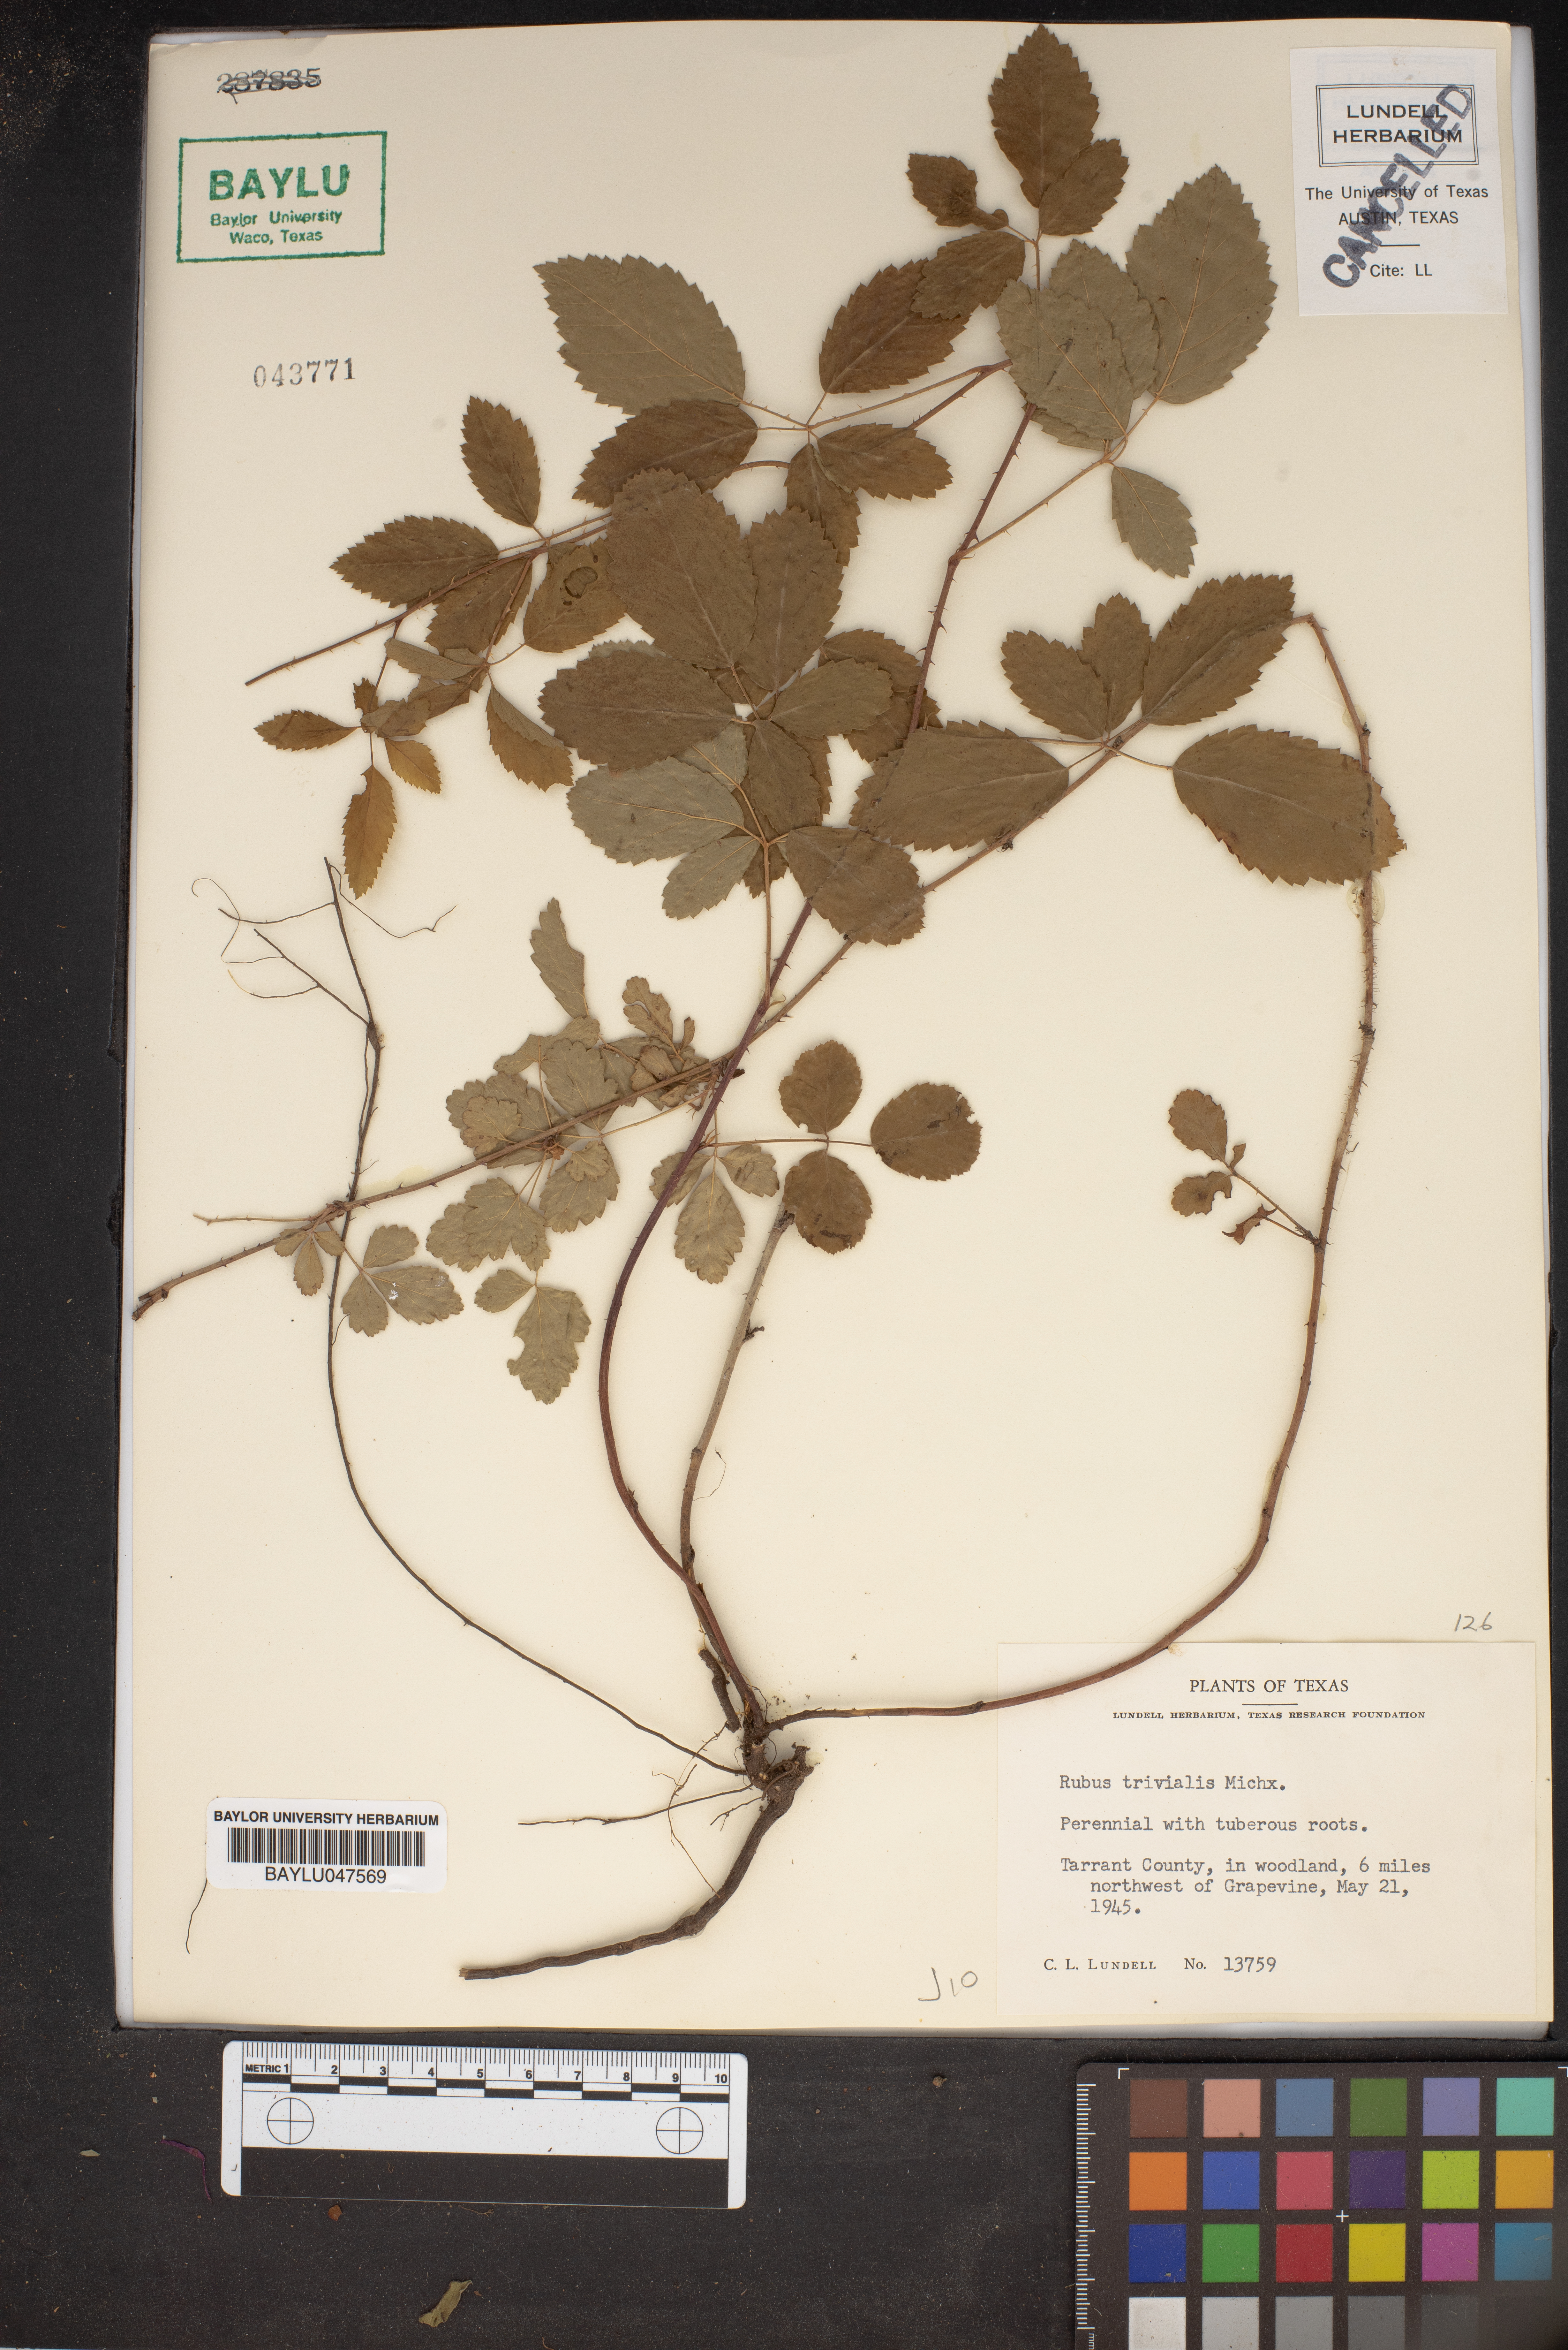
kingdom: Plantae
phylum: Tracheophyta
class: Magnoliopsida
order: Rosales
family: Rosaceae
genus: Rubus
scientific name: Rubus trivialis
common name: Southern dewberry
